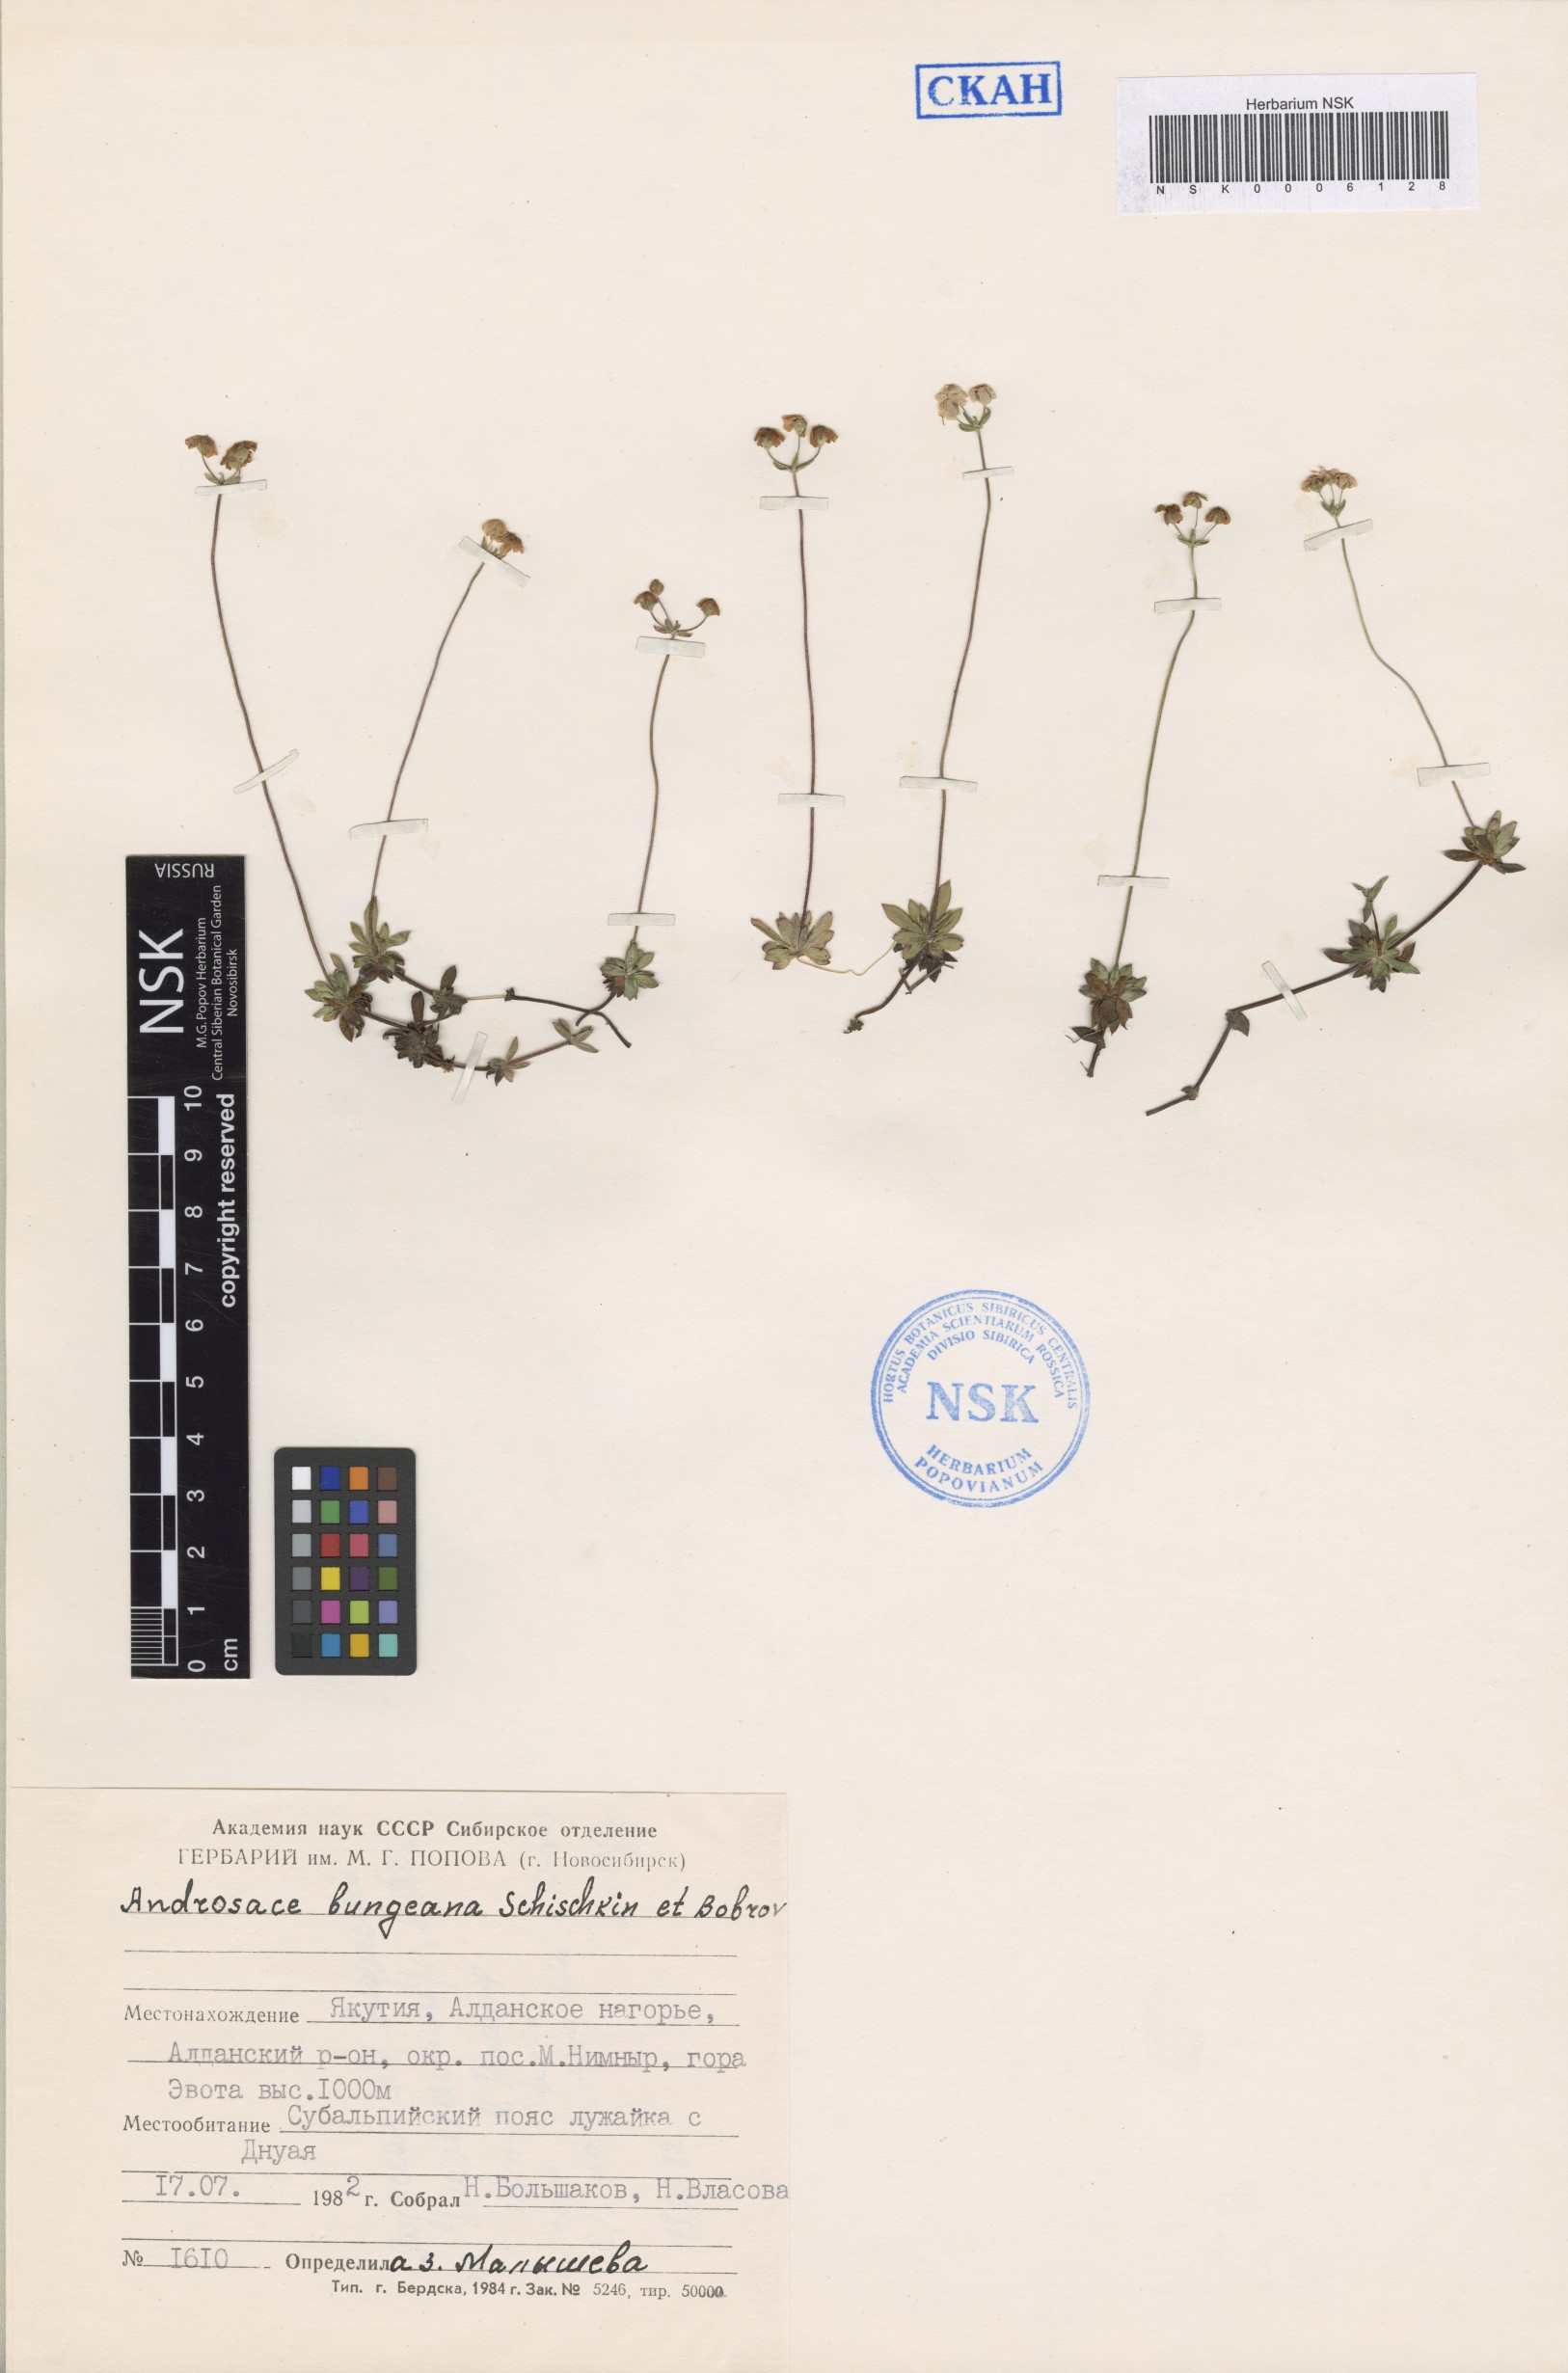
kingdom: Plantae
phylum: Tracheophyta
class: Magnoliopsida
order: Ericales
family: Primulaceae
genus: Androsace
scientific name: Androsace bungeana
